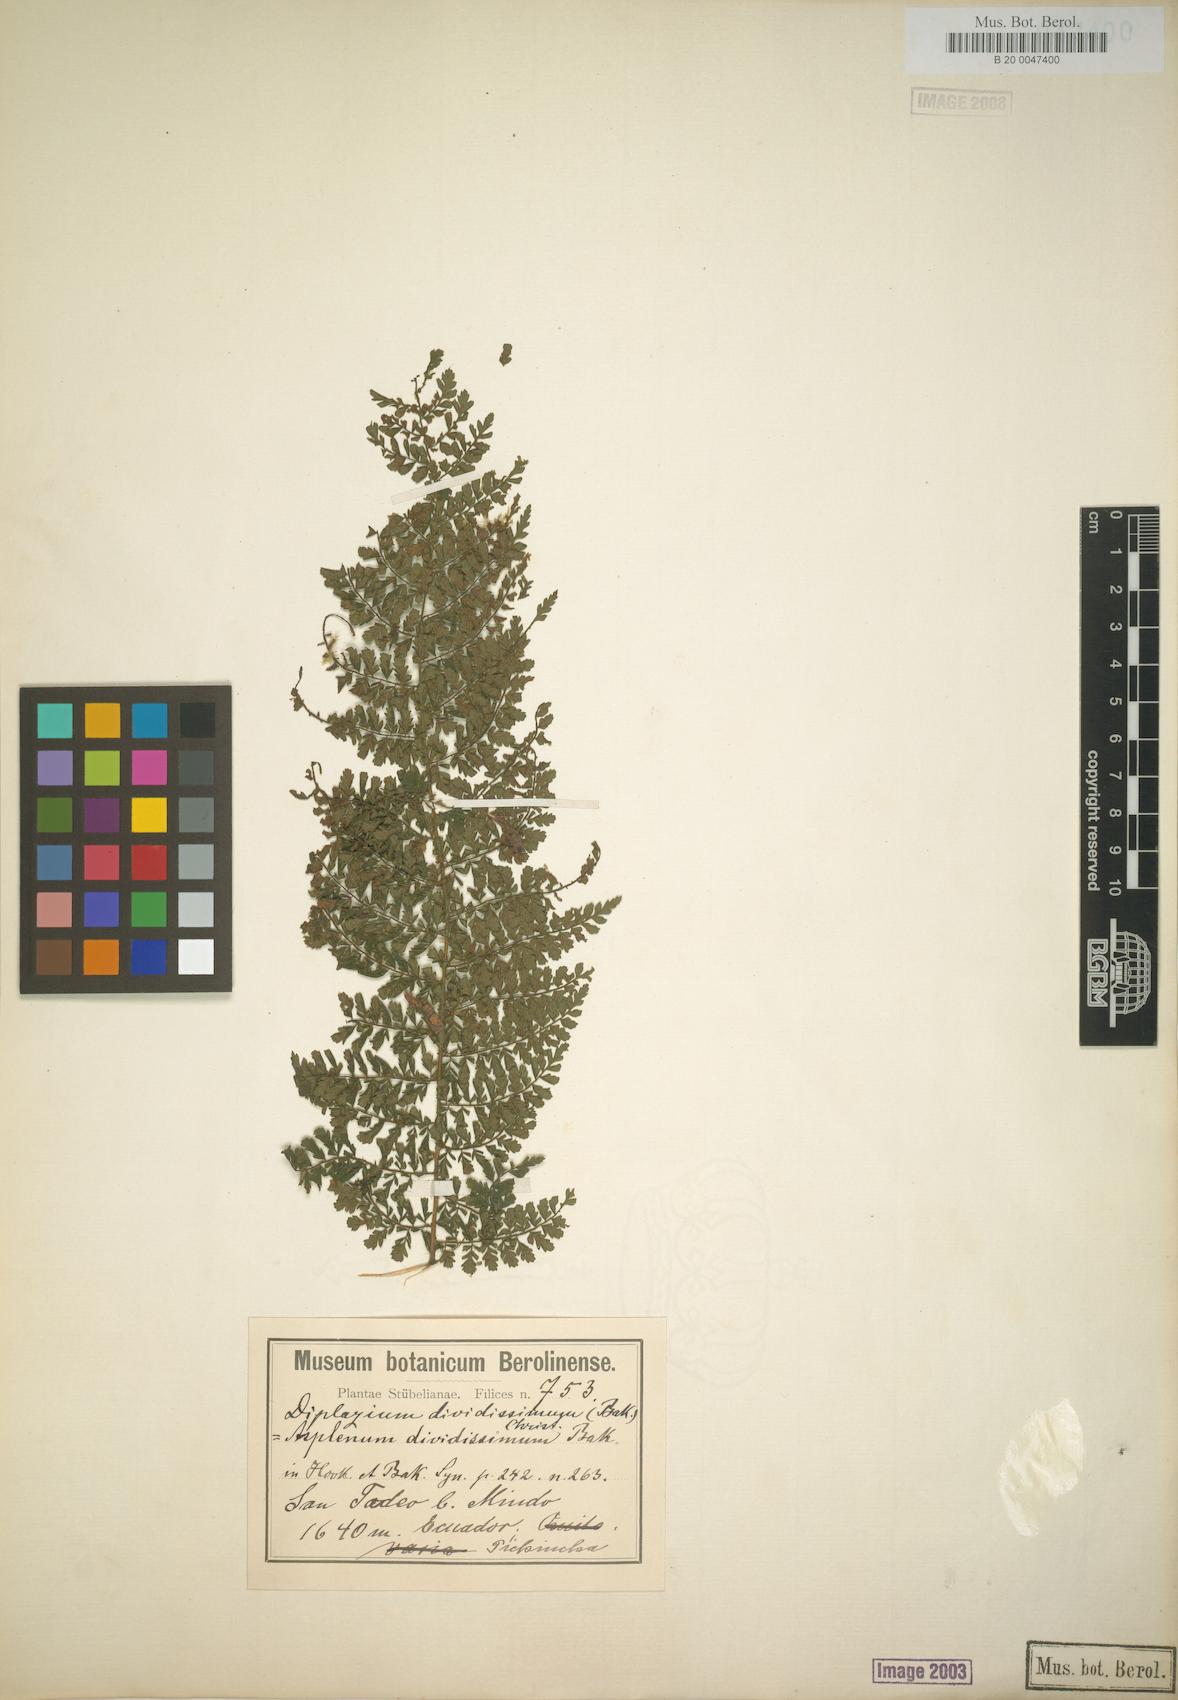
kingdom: Plantae
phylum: Tracheophyta
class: Polypodiopsida
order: Polypodiales
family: Athyriaceae
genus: Diplazium
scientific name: Diplazium divisissimum
